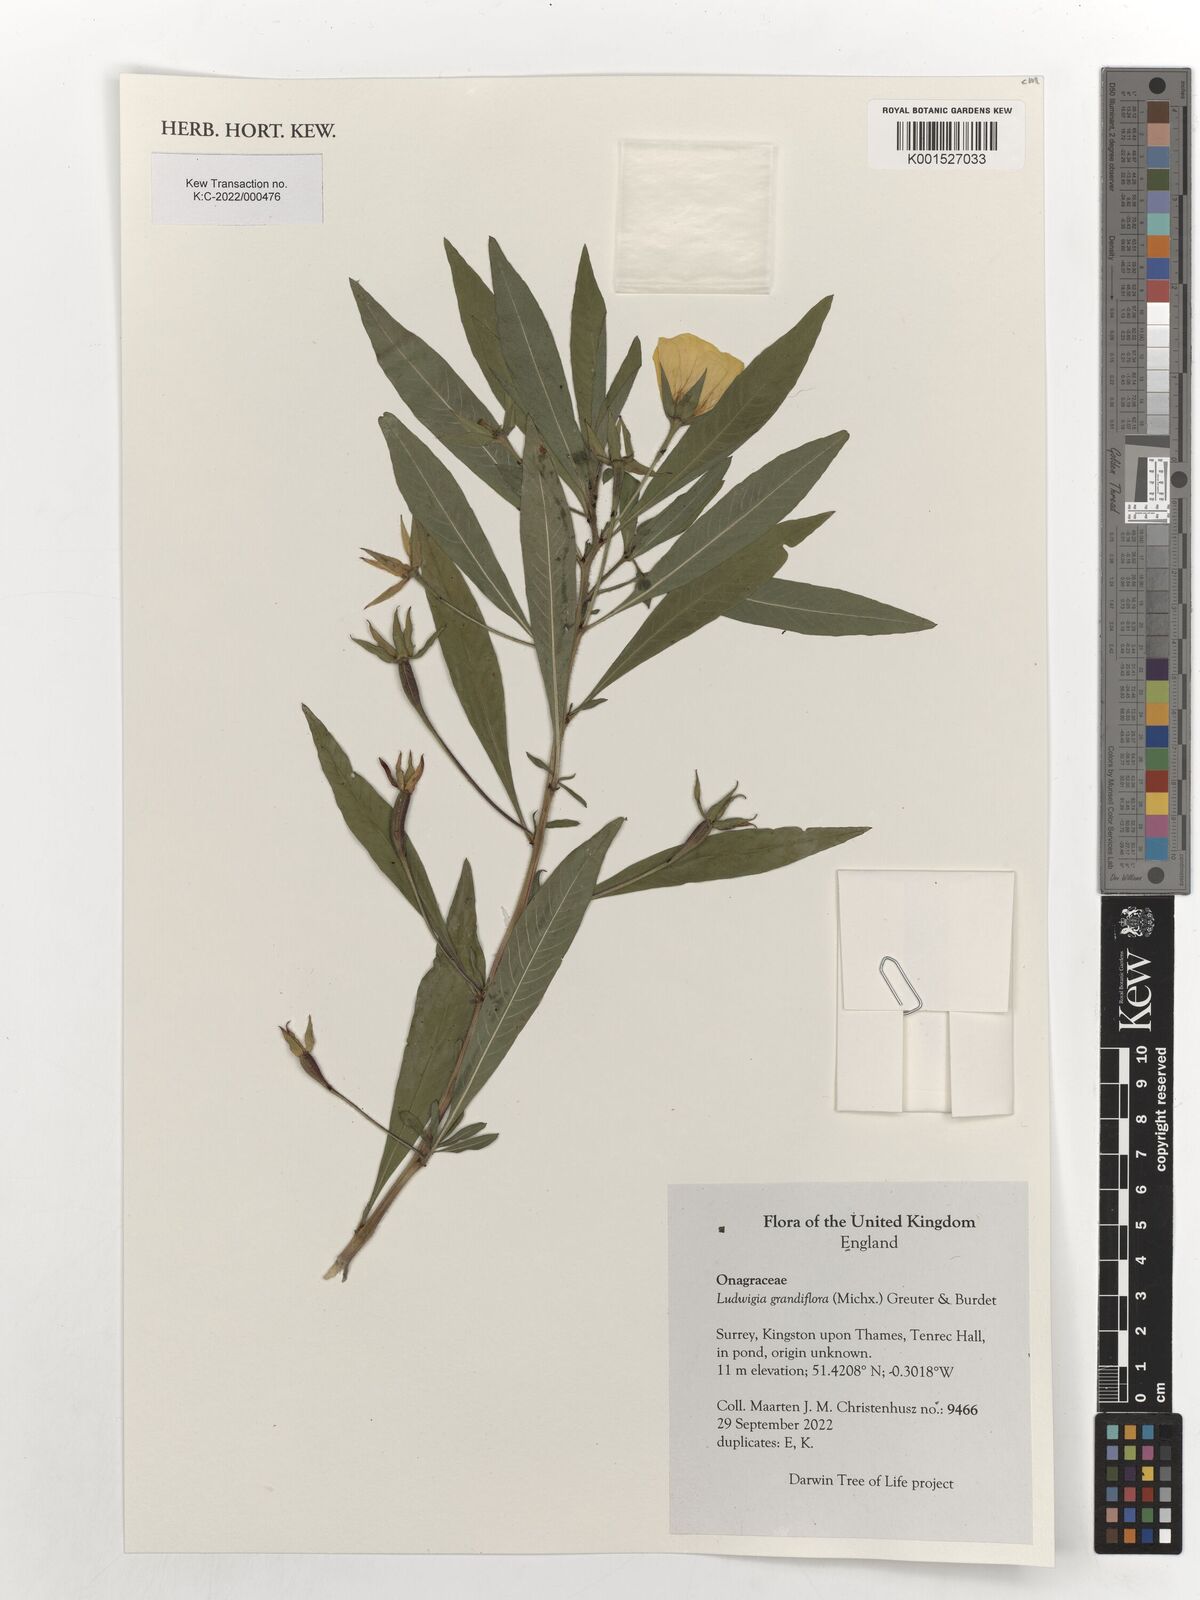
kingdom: Plantae
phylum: Tracheophyta
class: Magnoliopsida
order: Myrtales
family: Onagraceae
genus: Ludwigia
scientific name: Ludwigia grandiflora
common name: Water primrose
